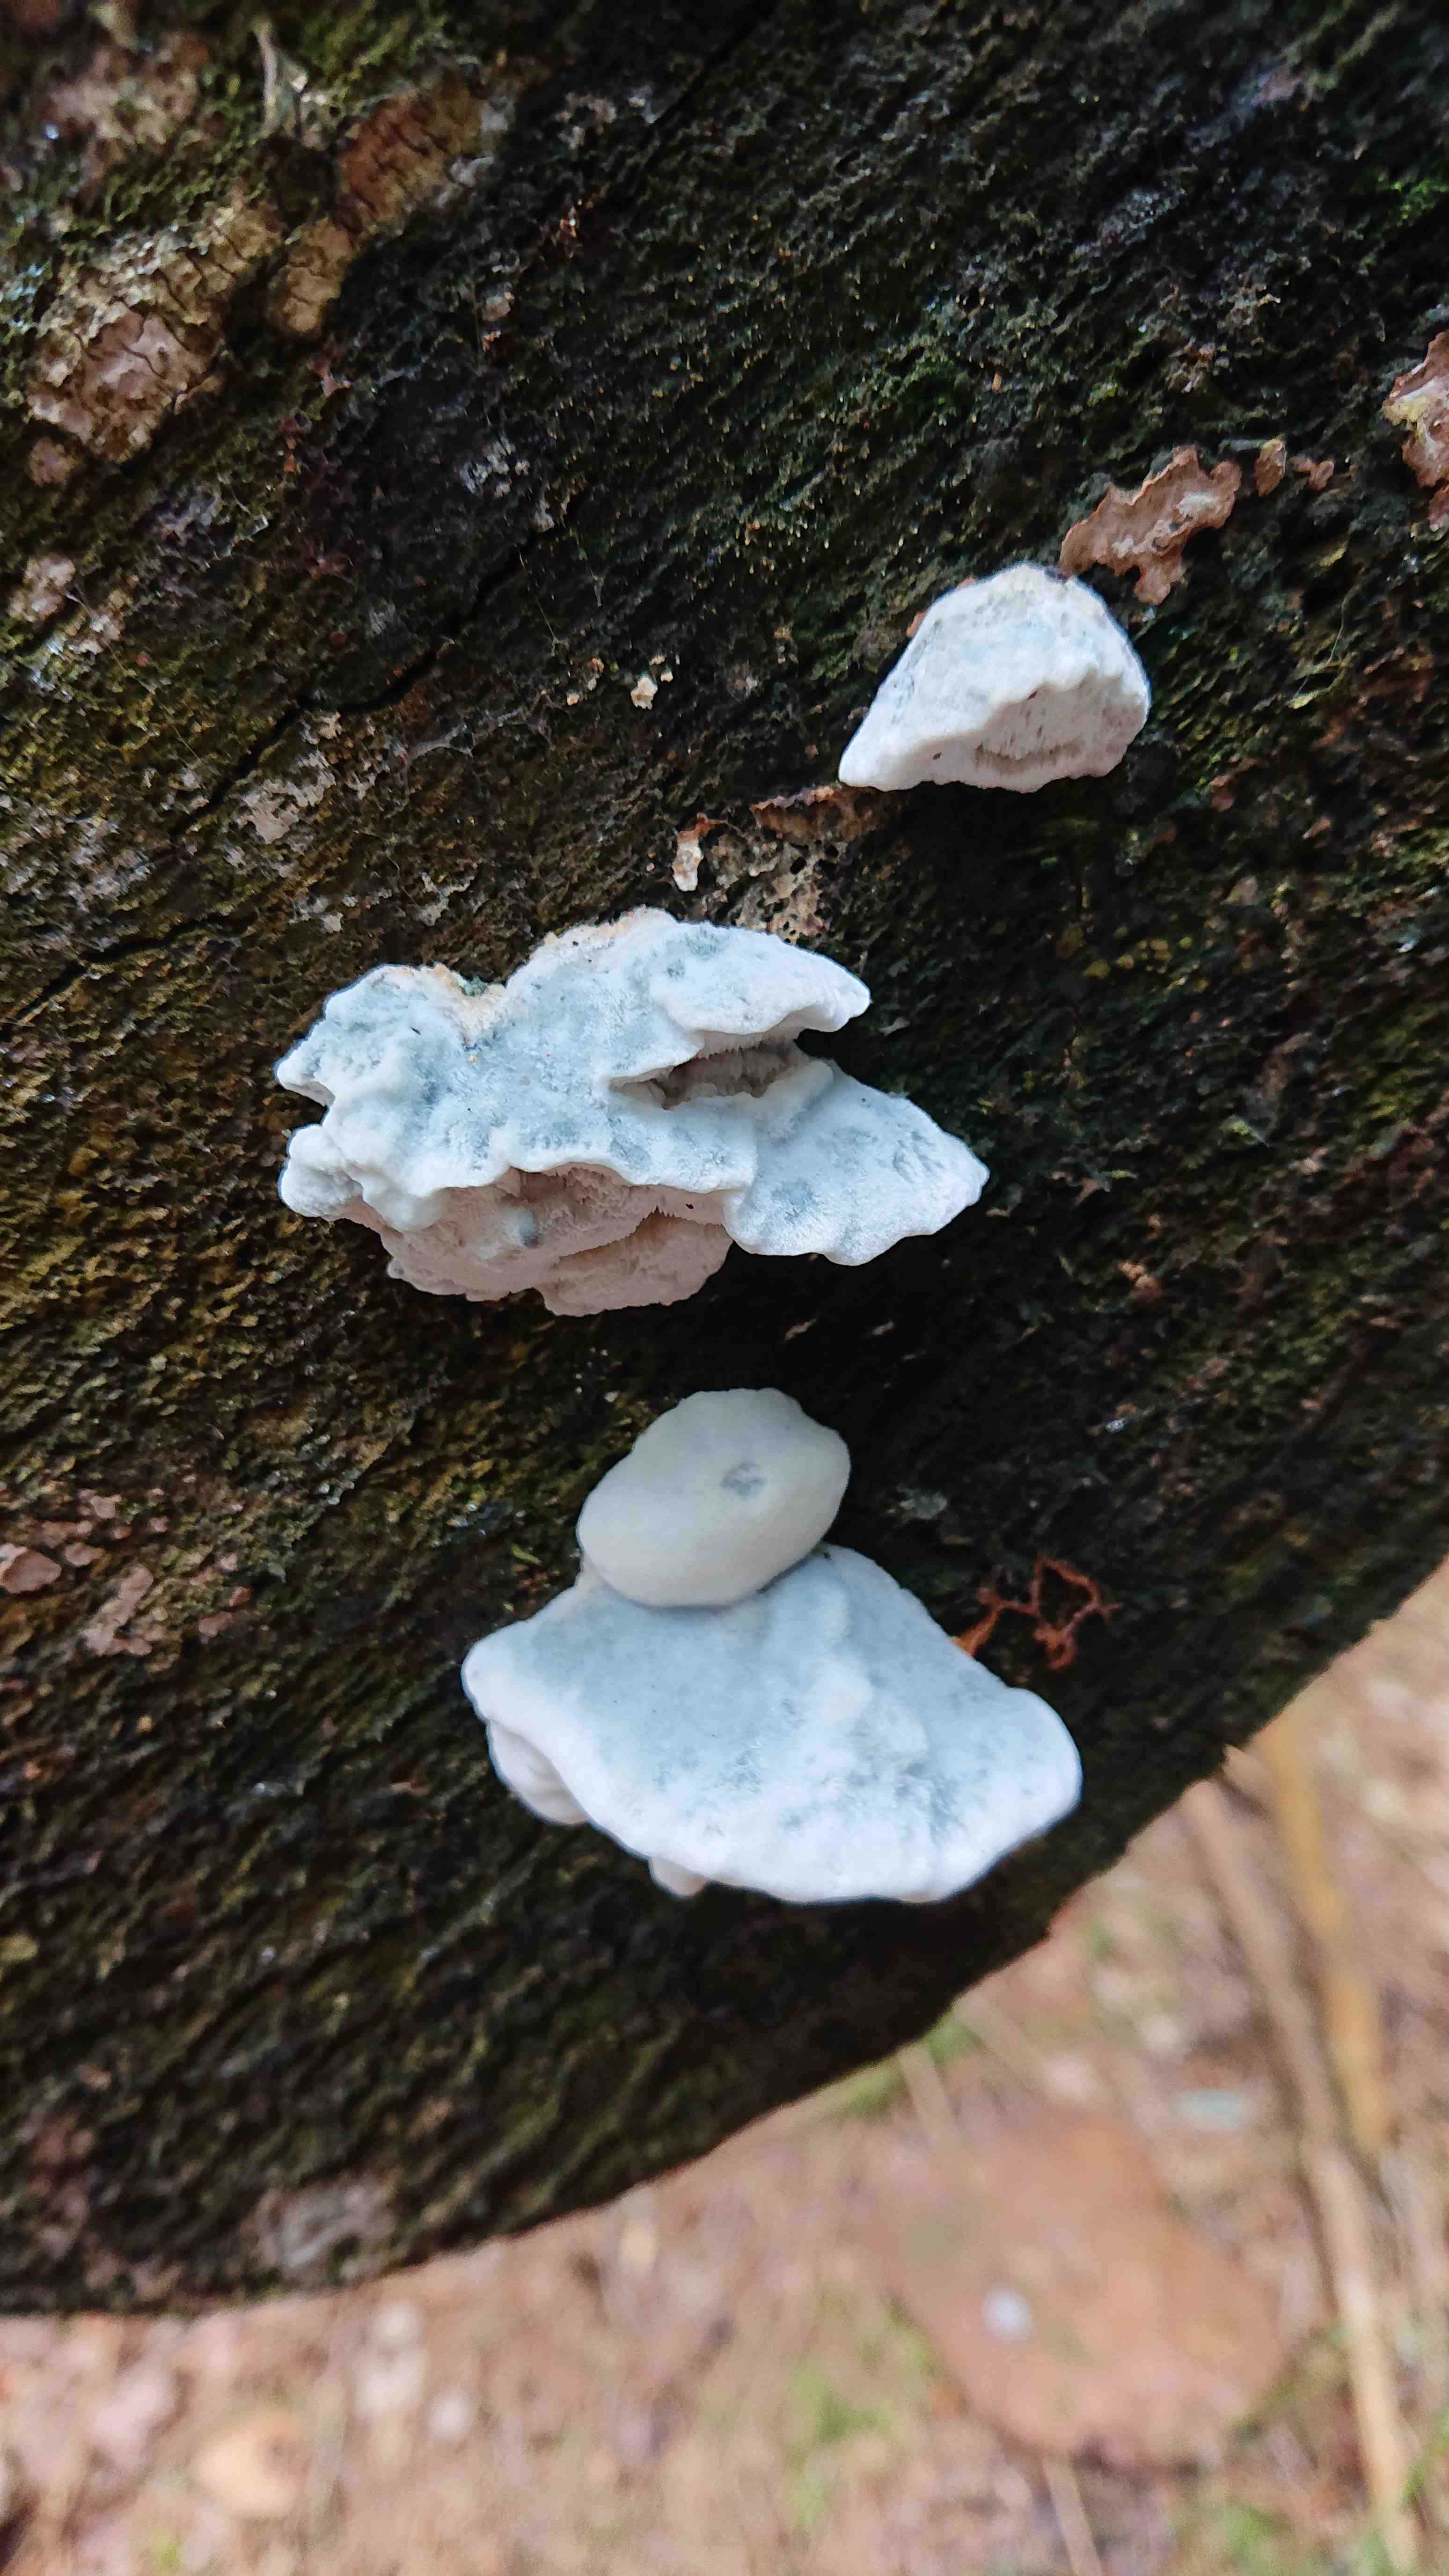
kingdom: Fungi
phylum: Basidiomycota
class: Agaricomycetes
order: Polyporales
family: Polyporaceae
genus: Cyanosporus
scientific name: Cyanosporus caesius
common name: blålig kødporesvamp
